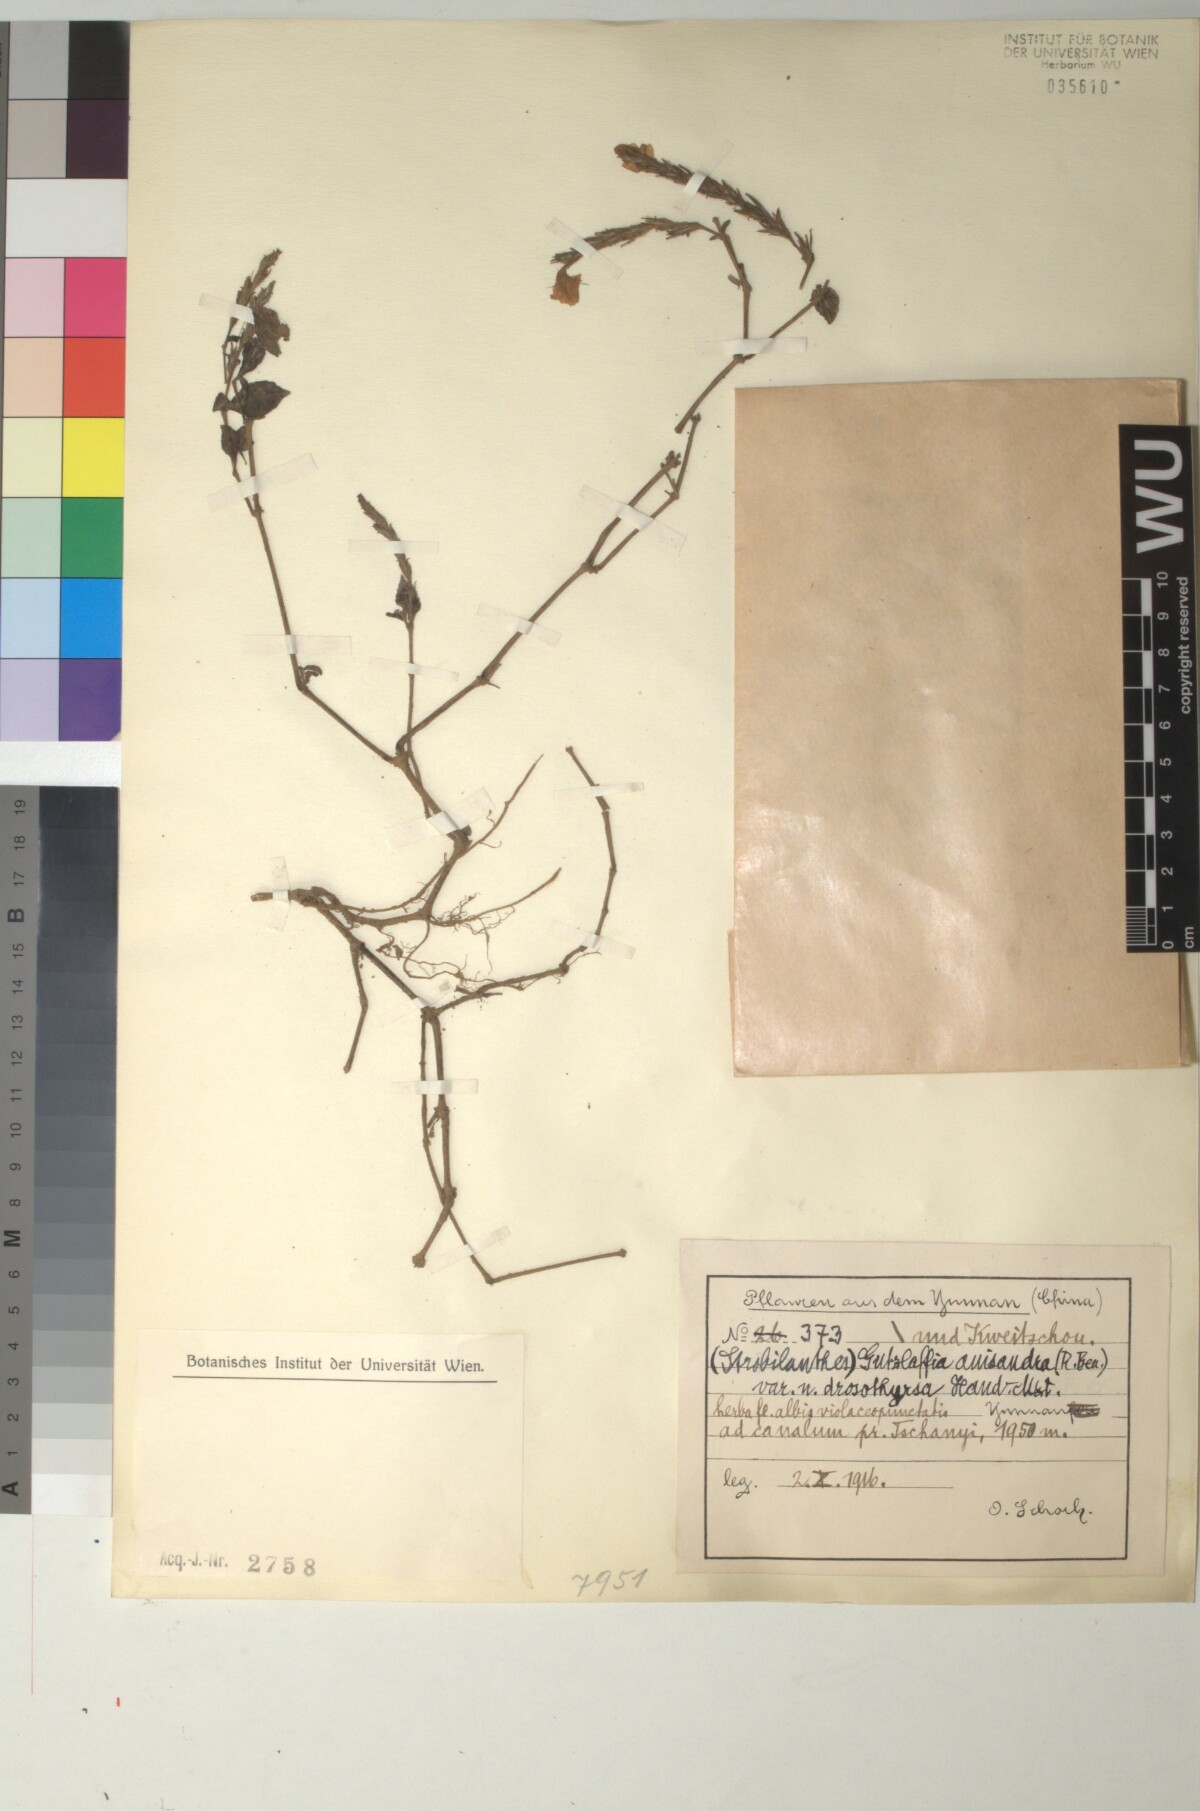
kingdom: Plantae
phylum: Tracheophyta
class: Magnoliopsida
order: Lamiales
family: Acanthaceae
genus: Strobilanthes
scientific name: Strobilanthes henryi
